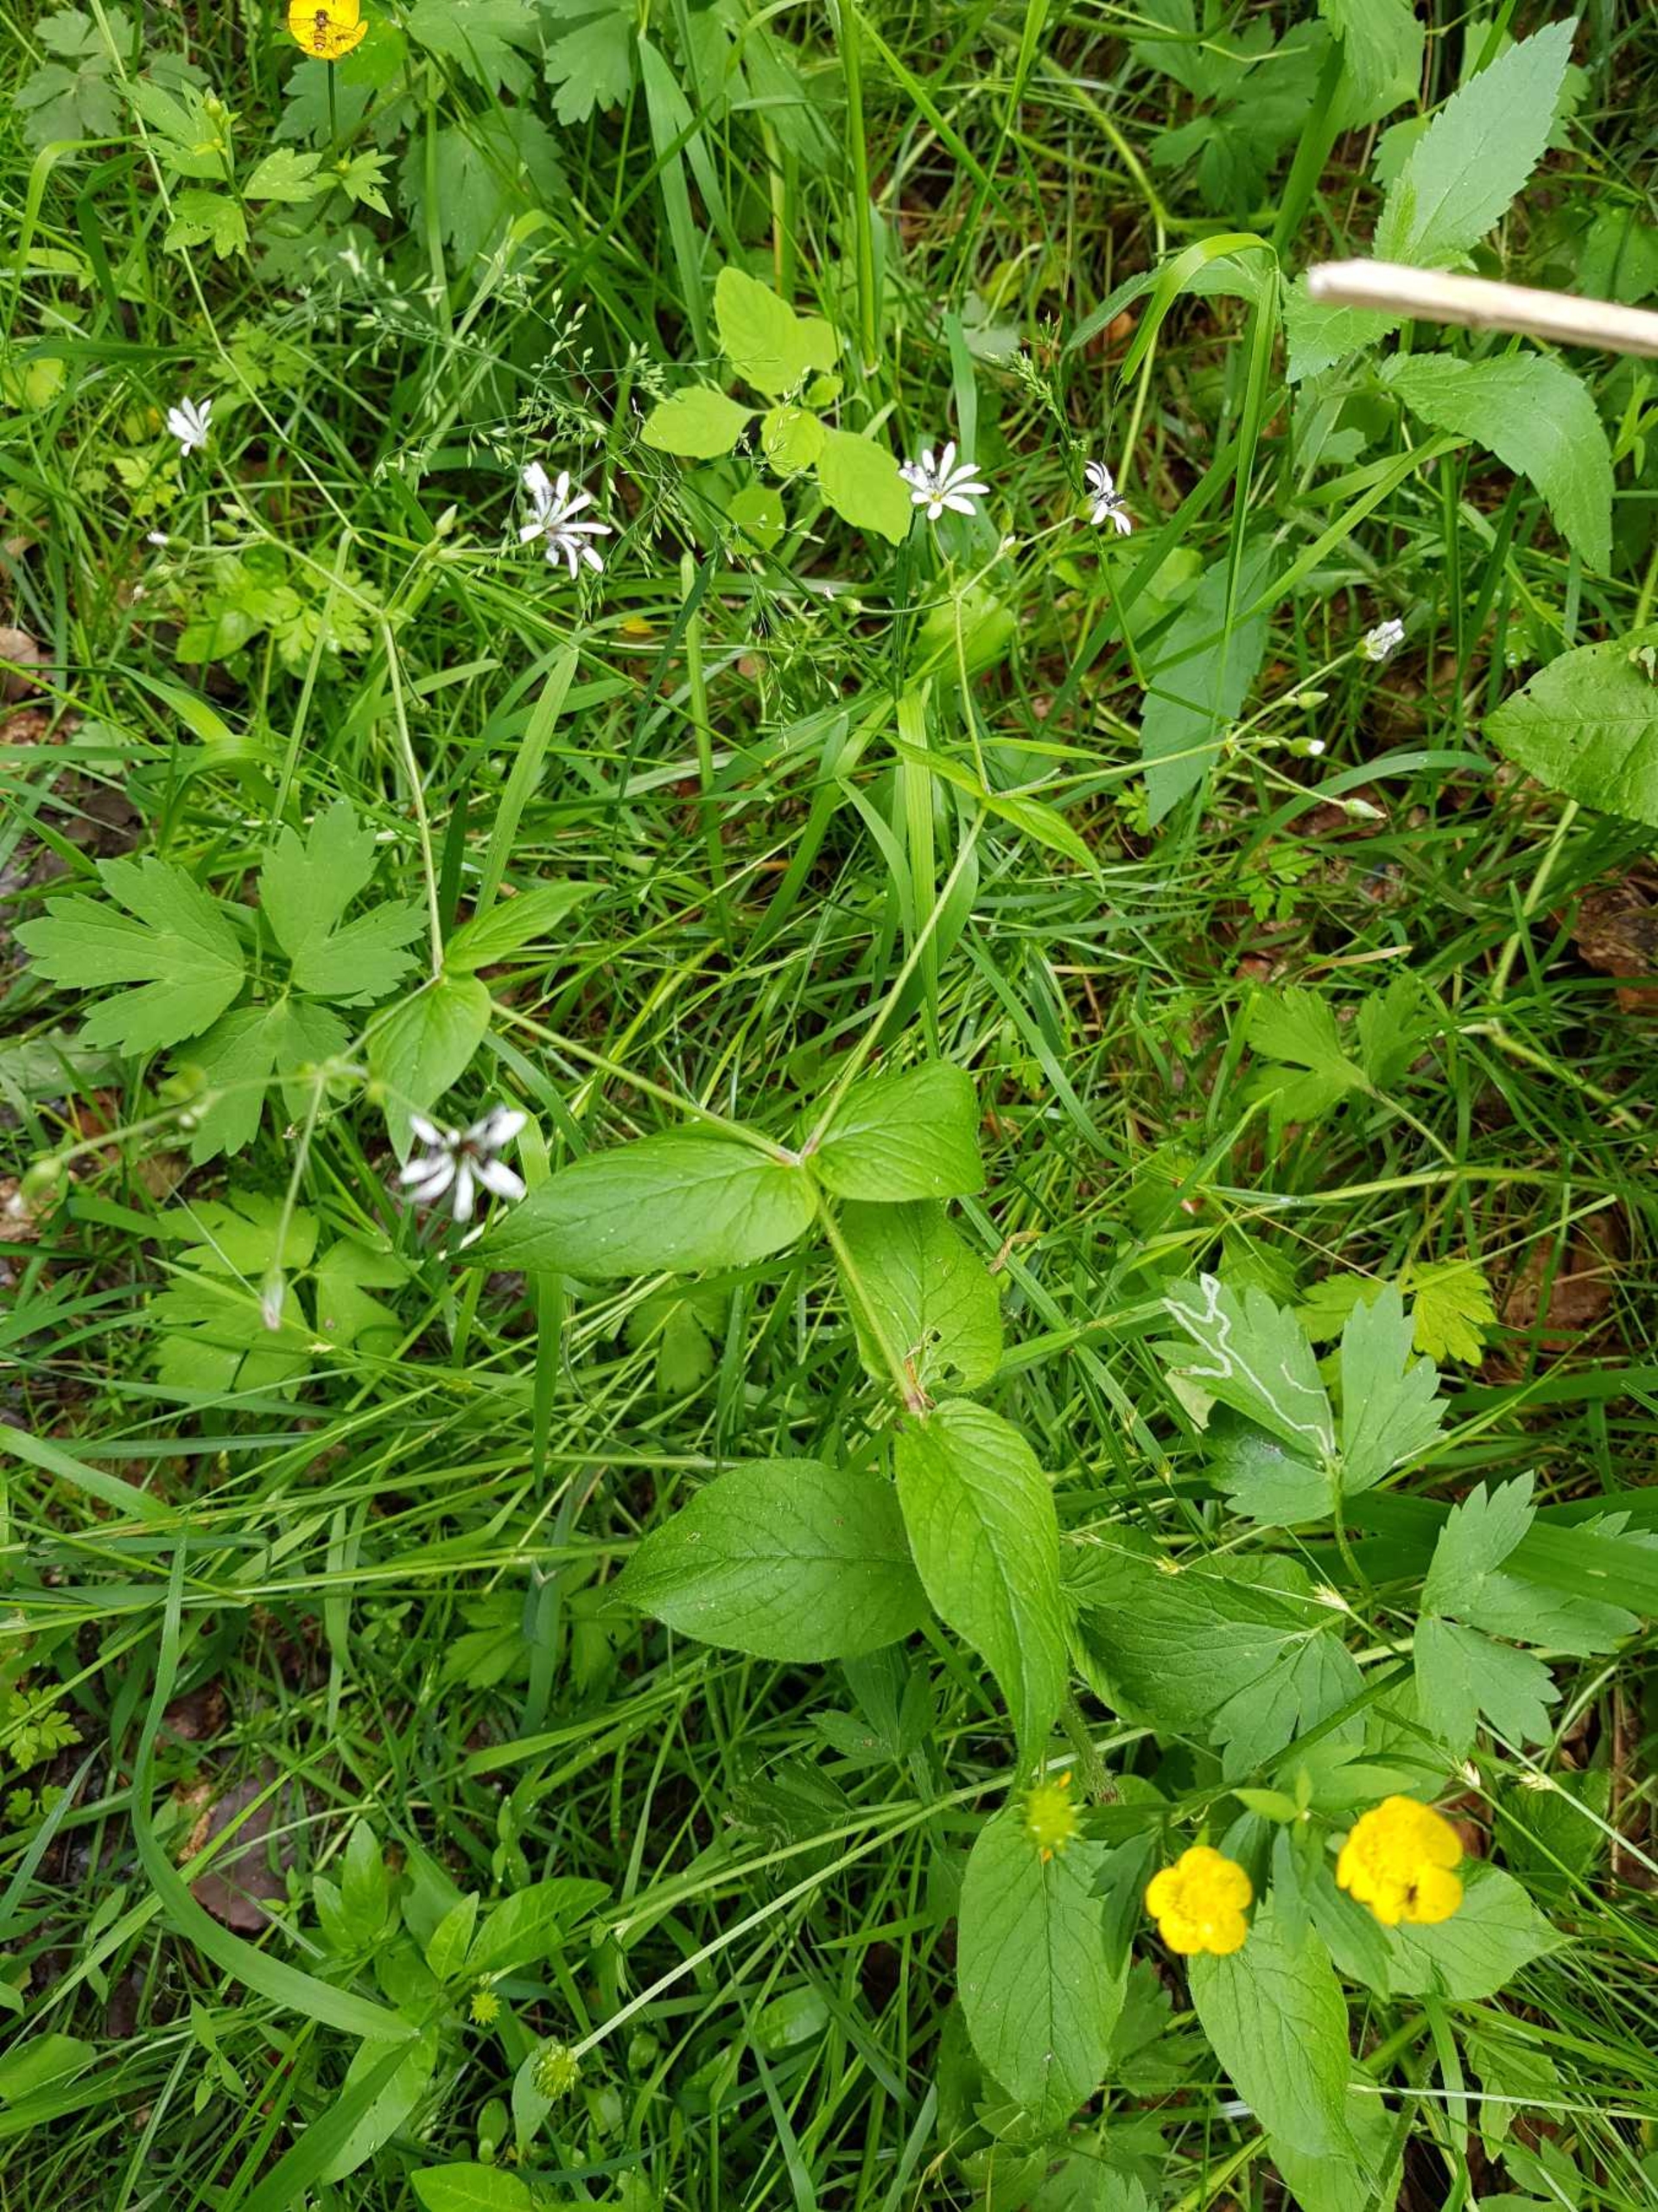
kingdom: Plantae
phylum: Tracheophyta
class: Magnoliopsida
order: Caryophyllales
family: Caryophyllaceae
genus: Stellaria
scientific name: Stellaria nemorum
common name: Lund-fladstjerne
